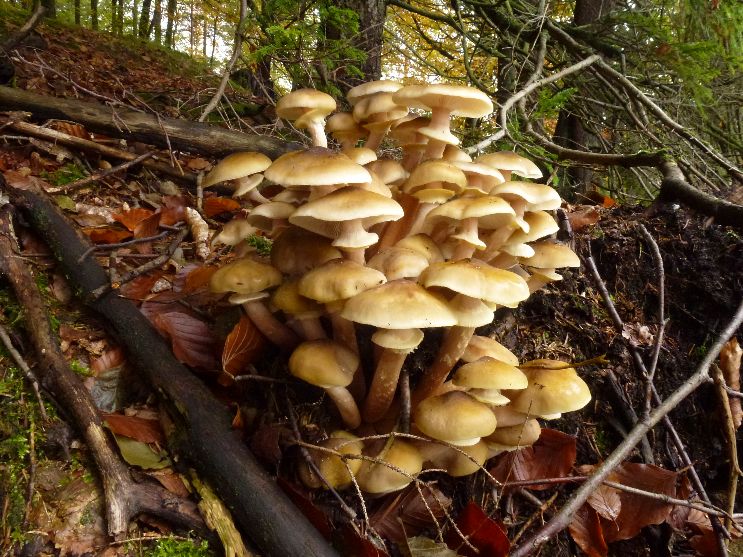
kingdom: Fungi
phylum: Basidiomycota
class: Agaricomycetes
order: Agaricales
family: Physalacriaceae
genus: Armillaria
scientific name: Armillaria mellea
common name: ægte honningsvamp
